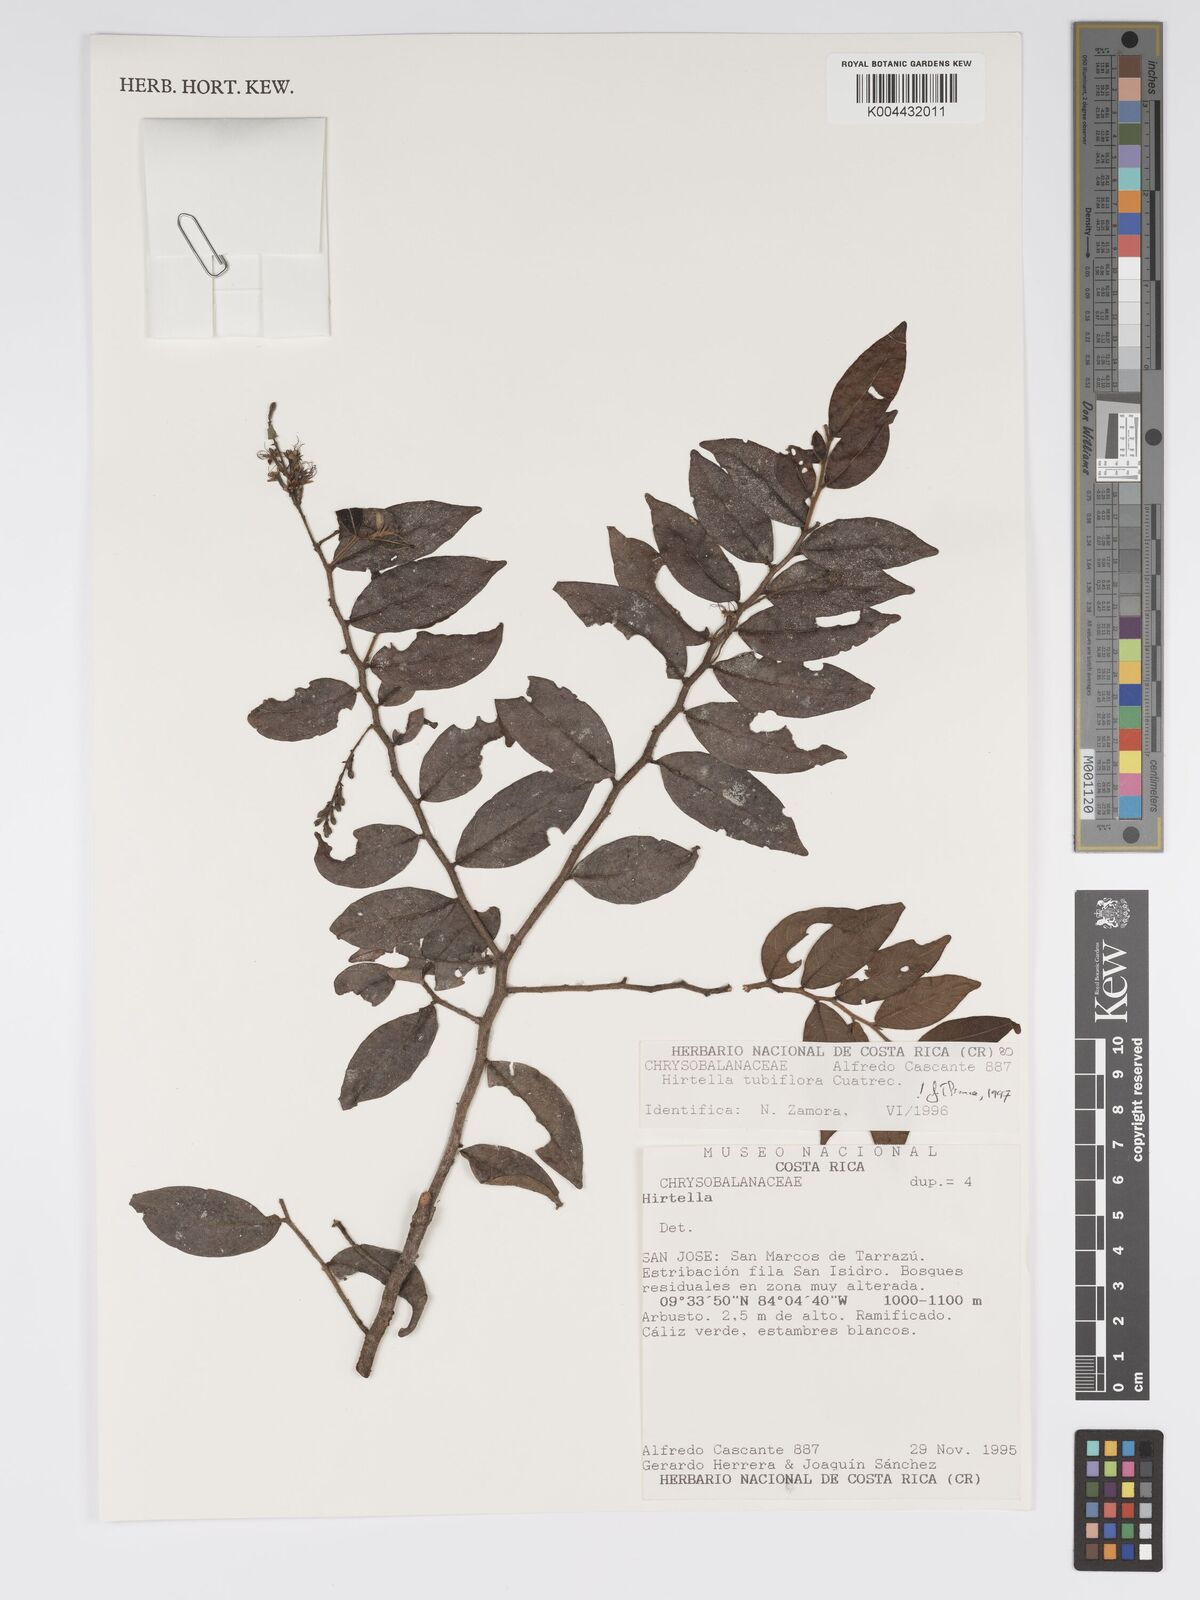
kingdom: Plantae
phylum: Tracheophyta
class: Magnoliopsida
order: Malpighiales
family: Chrysobalanaceae
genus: Hirtella
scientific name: Hirtella tubiflora
